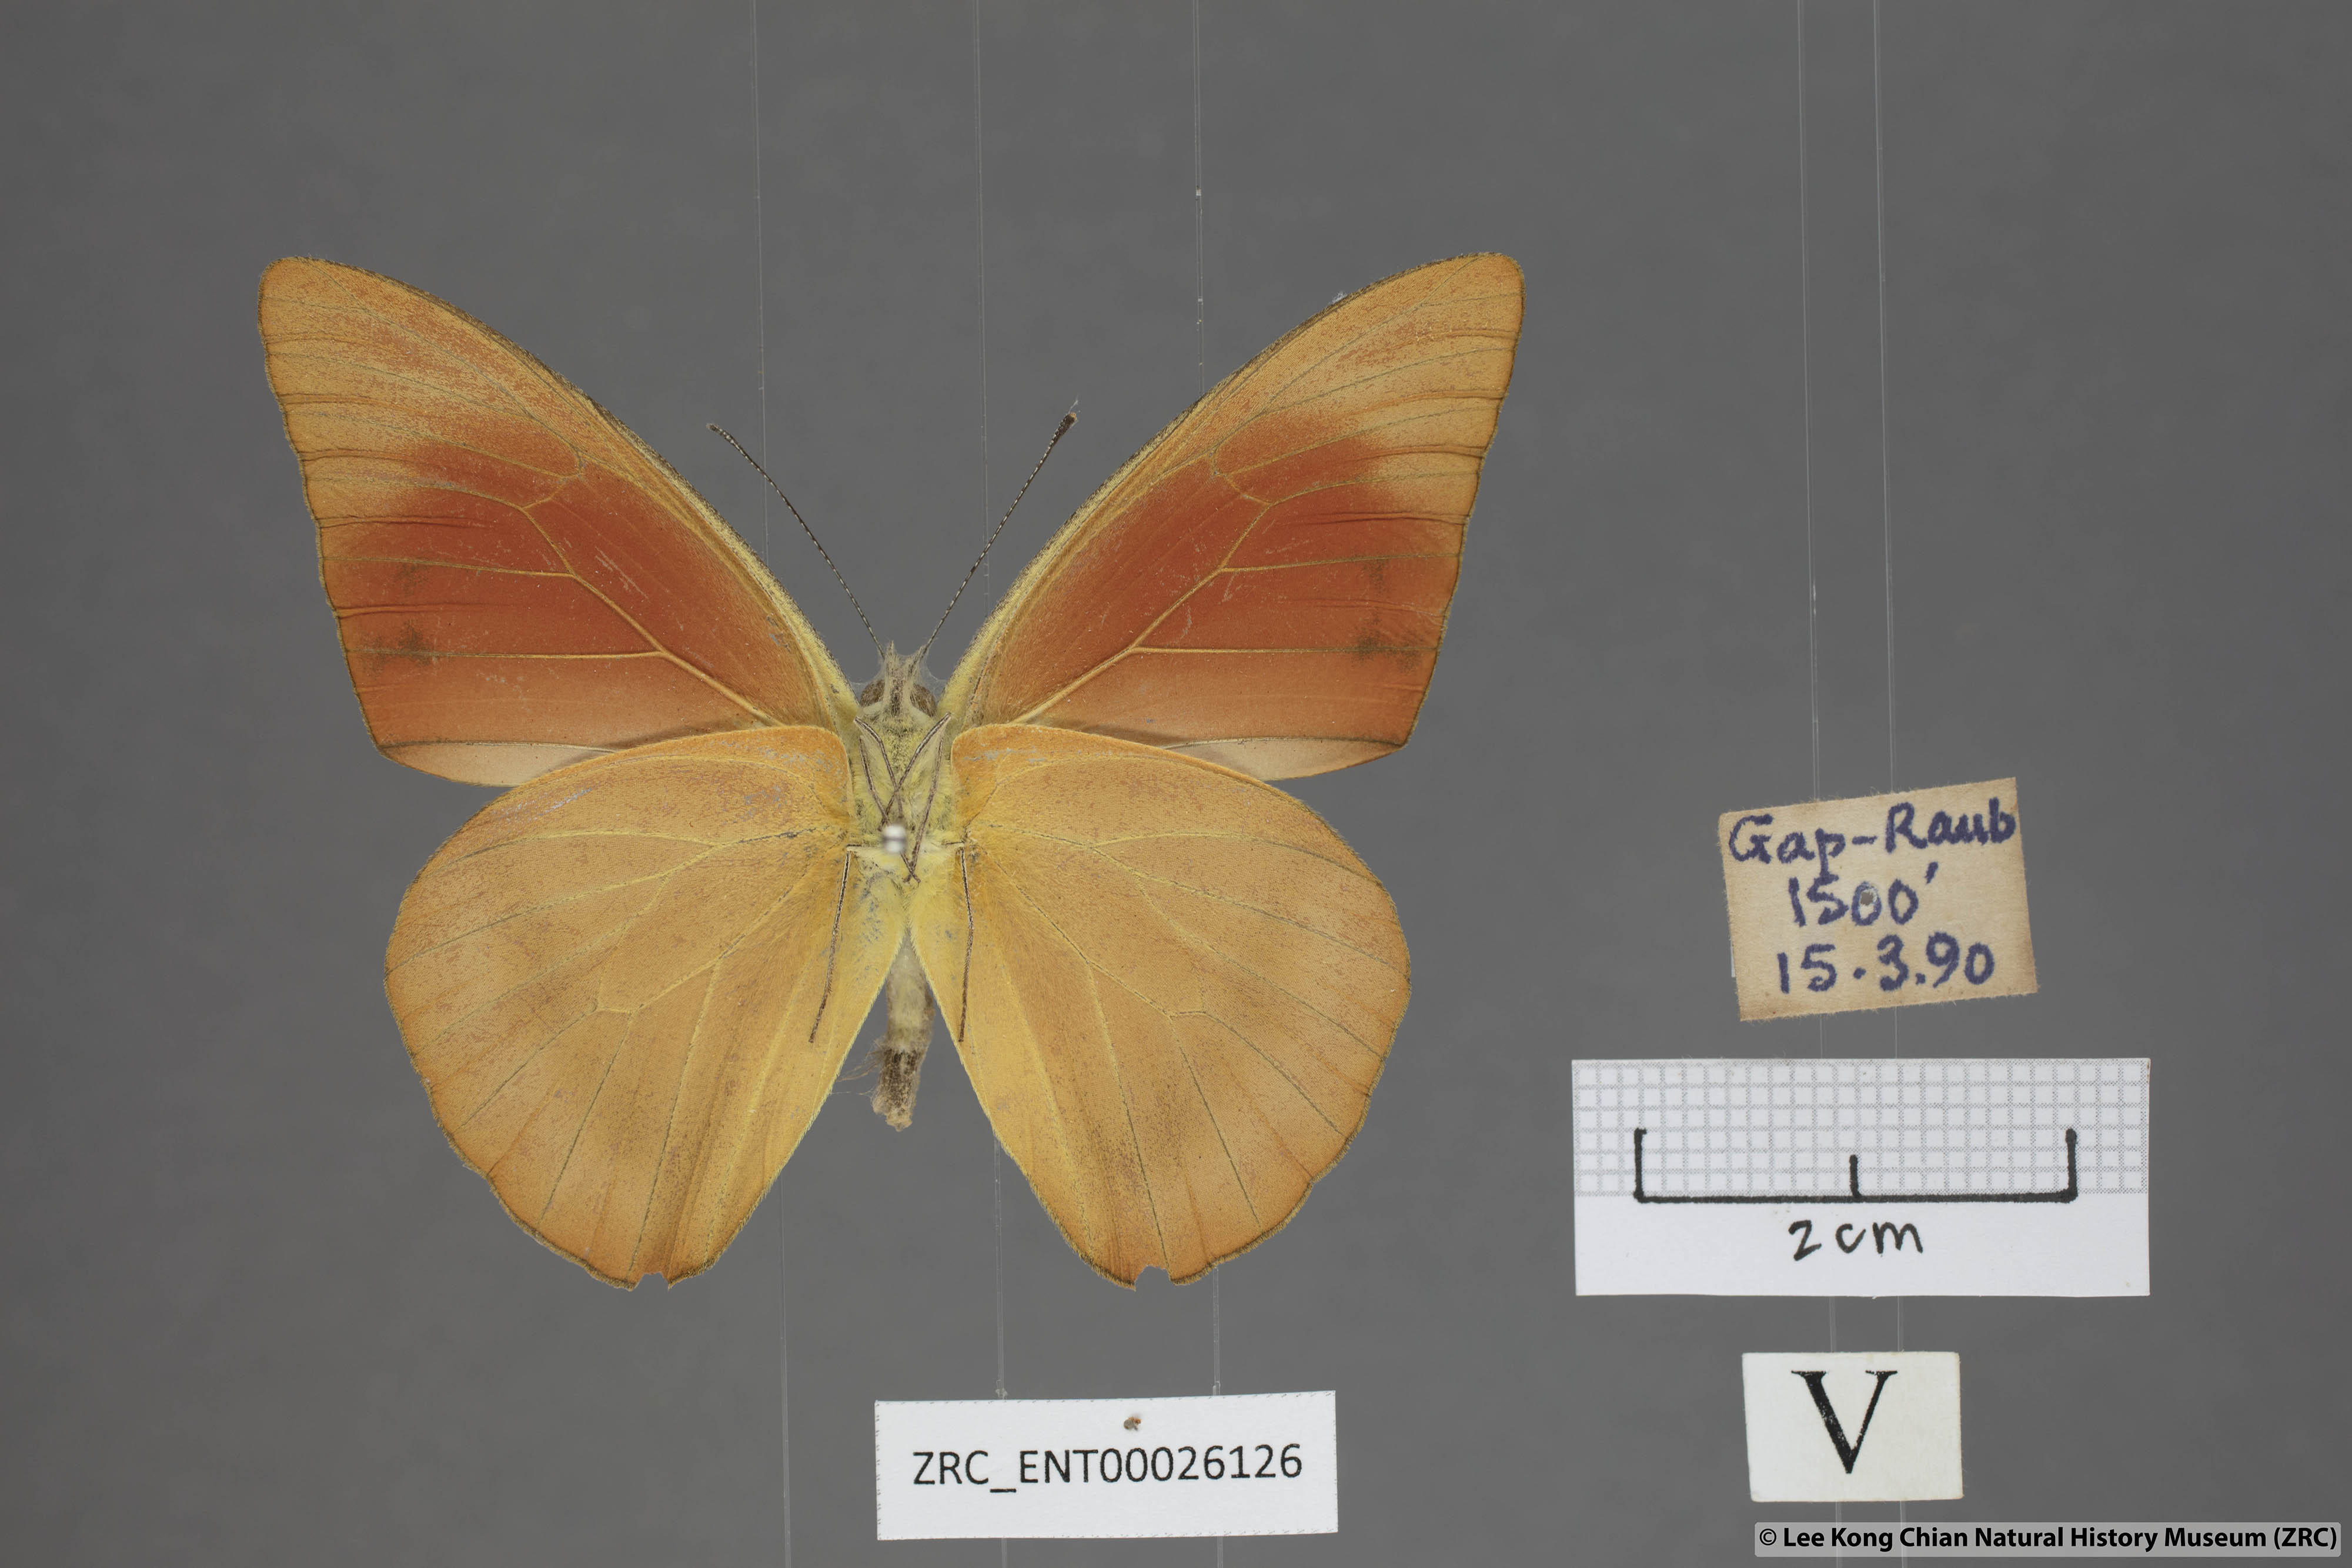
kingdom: Animalia
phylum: Arthropoda
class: Insecta
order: Lepidoptera
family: Pieridae
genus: Appias
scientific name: Appias nero
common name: Orange albatross
